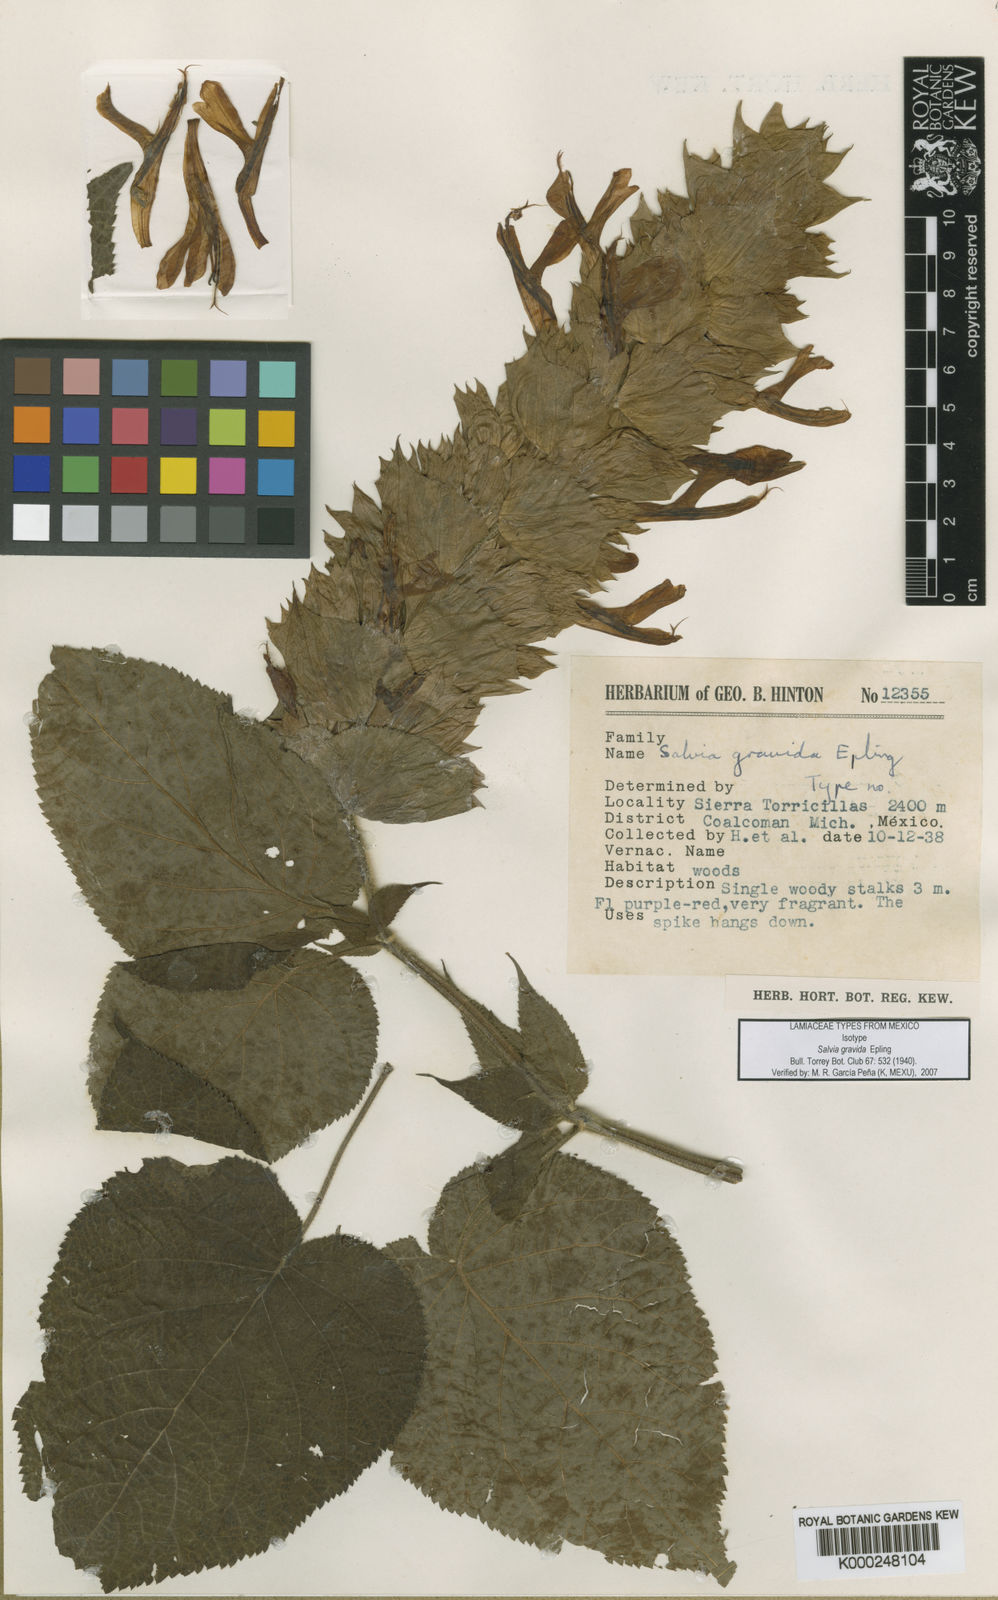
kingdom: Plantae
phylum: Tracheophyta
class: Magnoliopsida
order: Lamiales
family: Lamiaceae
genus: Salvia
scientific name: Salvia gravida
